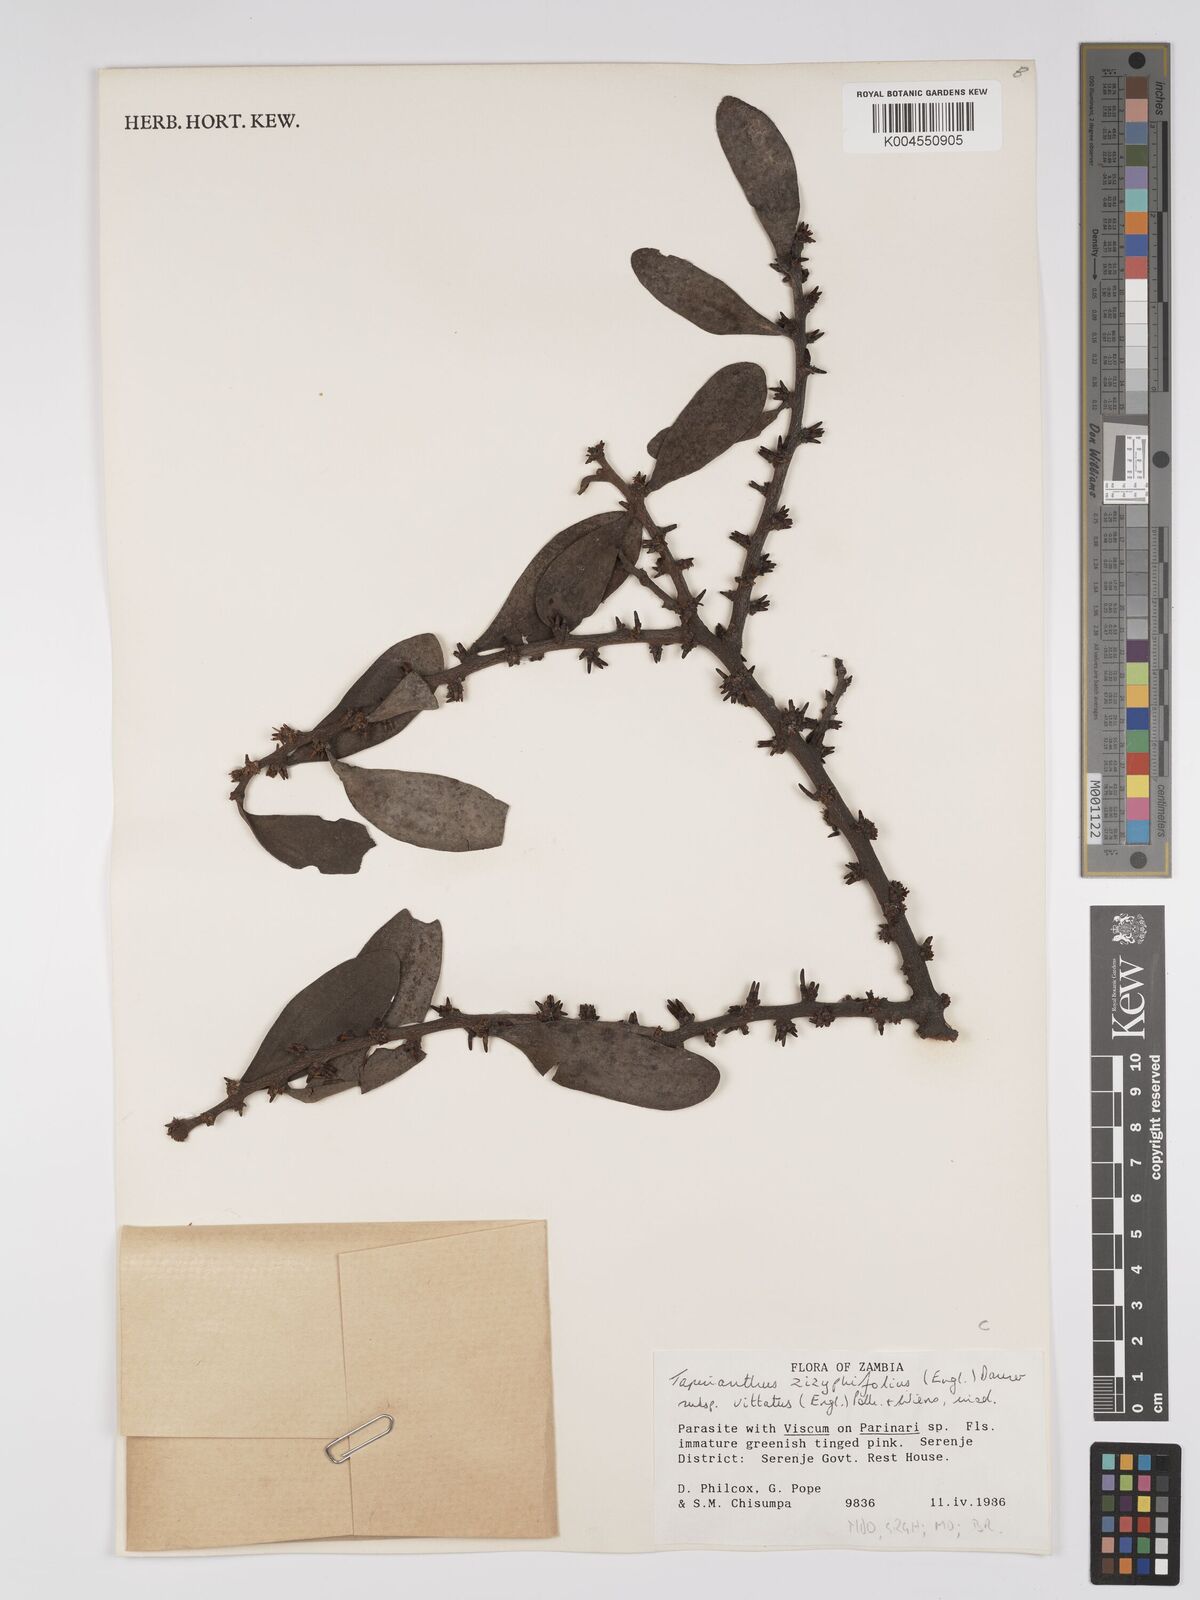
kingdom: Plantae
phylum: Tracheophyta
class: Magnoliopsida
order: Santalales
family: Loranthaceae
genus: Agelanthus
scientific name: Agelanthus zizyphifolius
